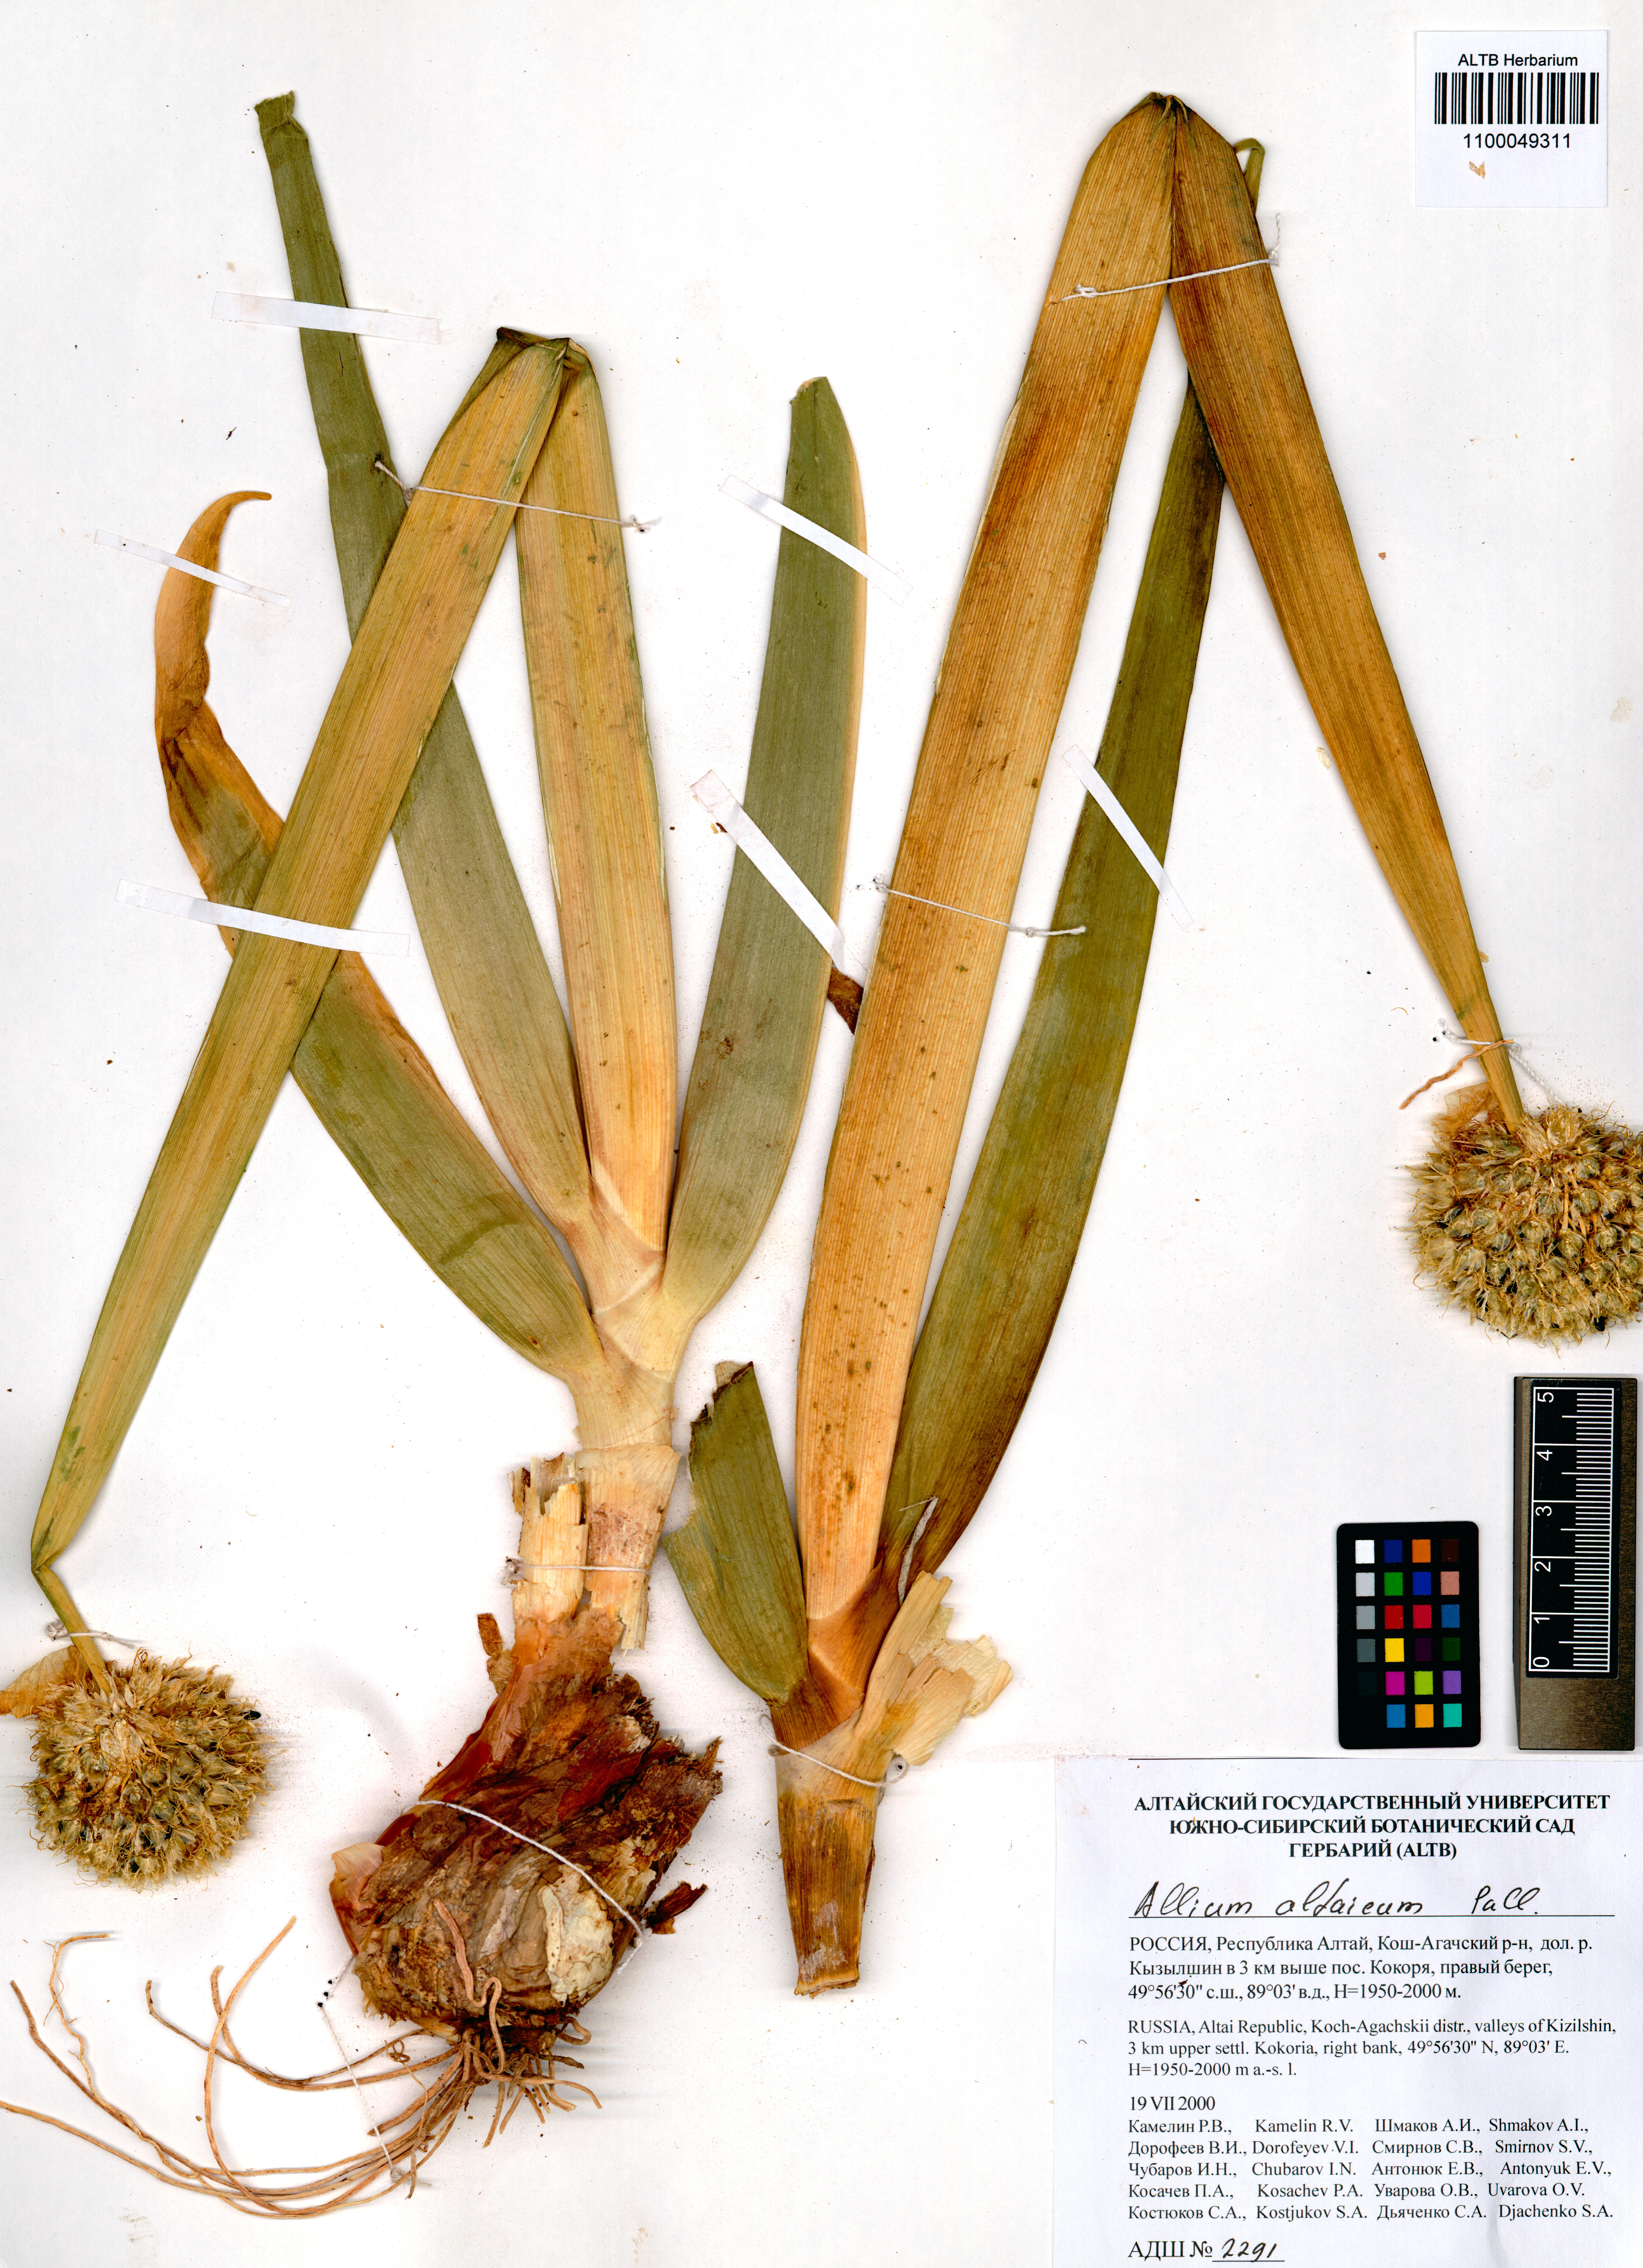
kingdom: Plantae
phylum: Tracheophyta
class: Liliopsida
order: Asparagales
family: Amaryllidaceae
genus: Allium
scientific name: Allium altaicum
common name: Altai onion
